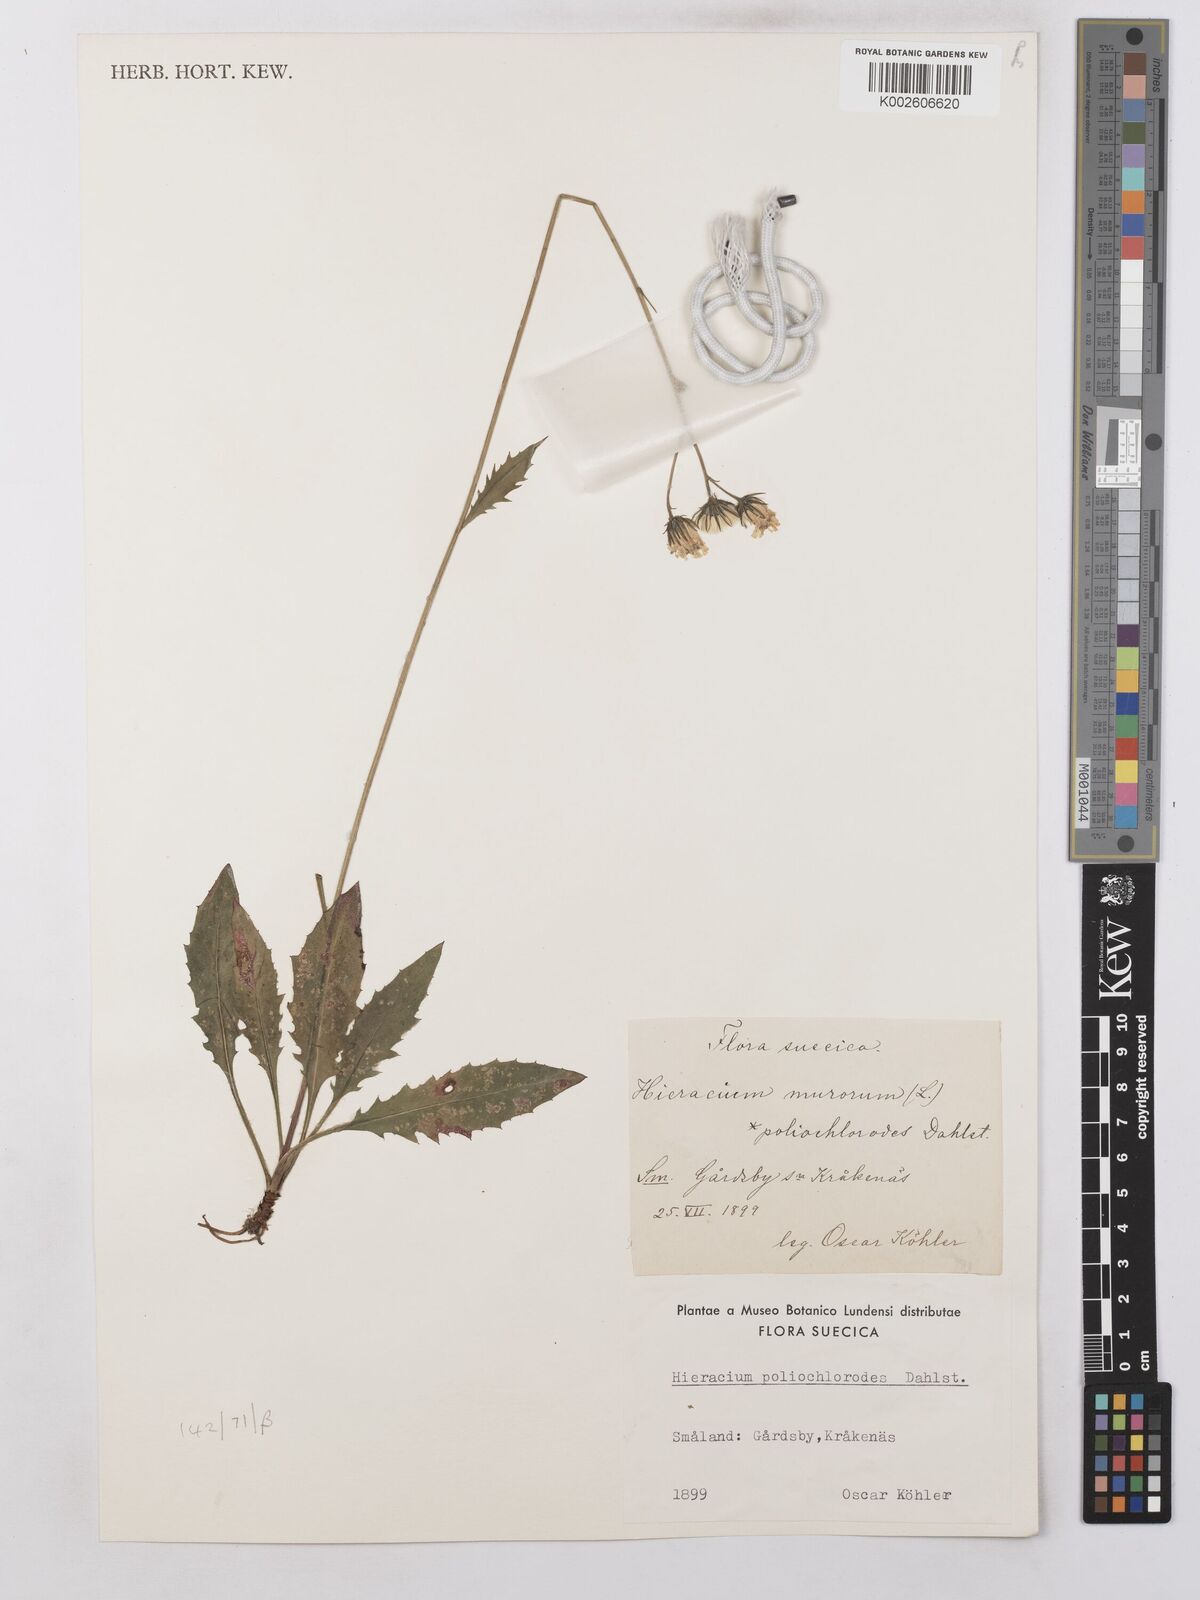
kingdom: Plantae
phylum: Tracheophyta
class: Magnoliopsida
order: Asterales
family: Asteraceae
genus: Hieracium
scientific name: Hieracium lachenalii
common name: Common hawkweed
